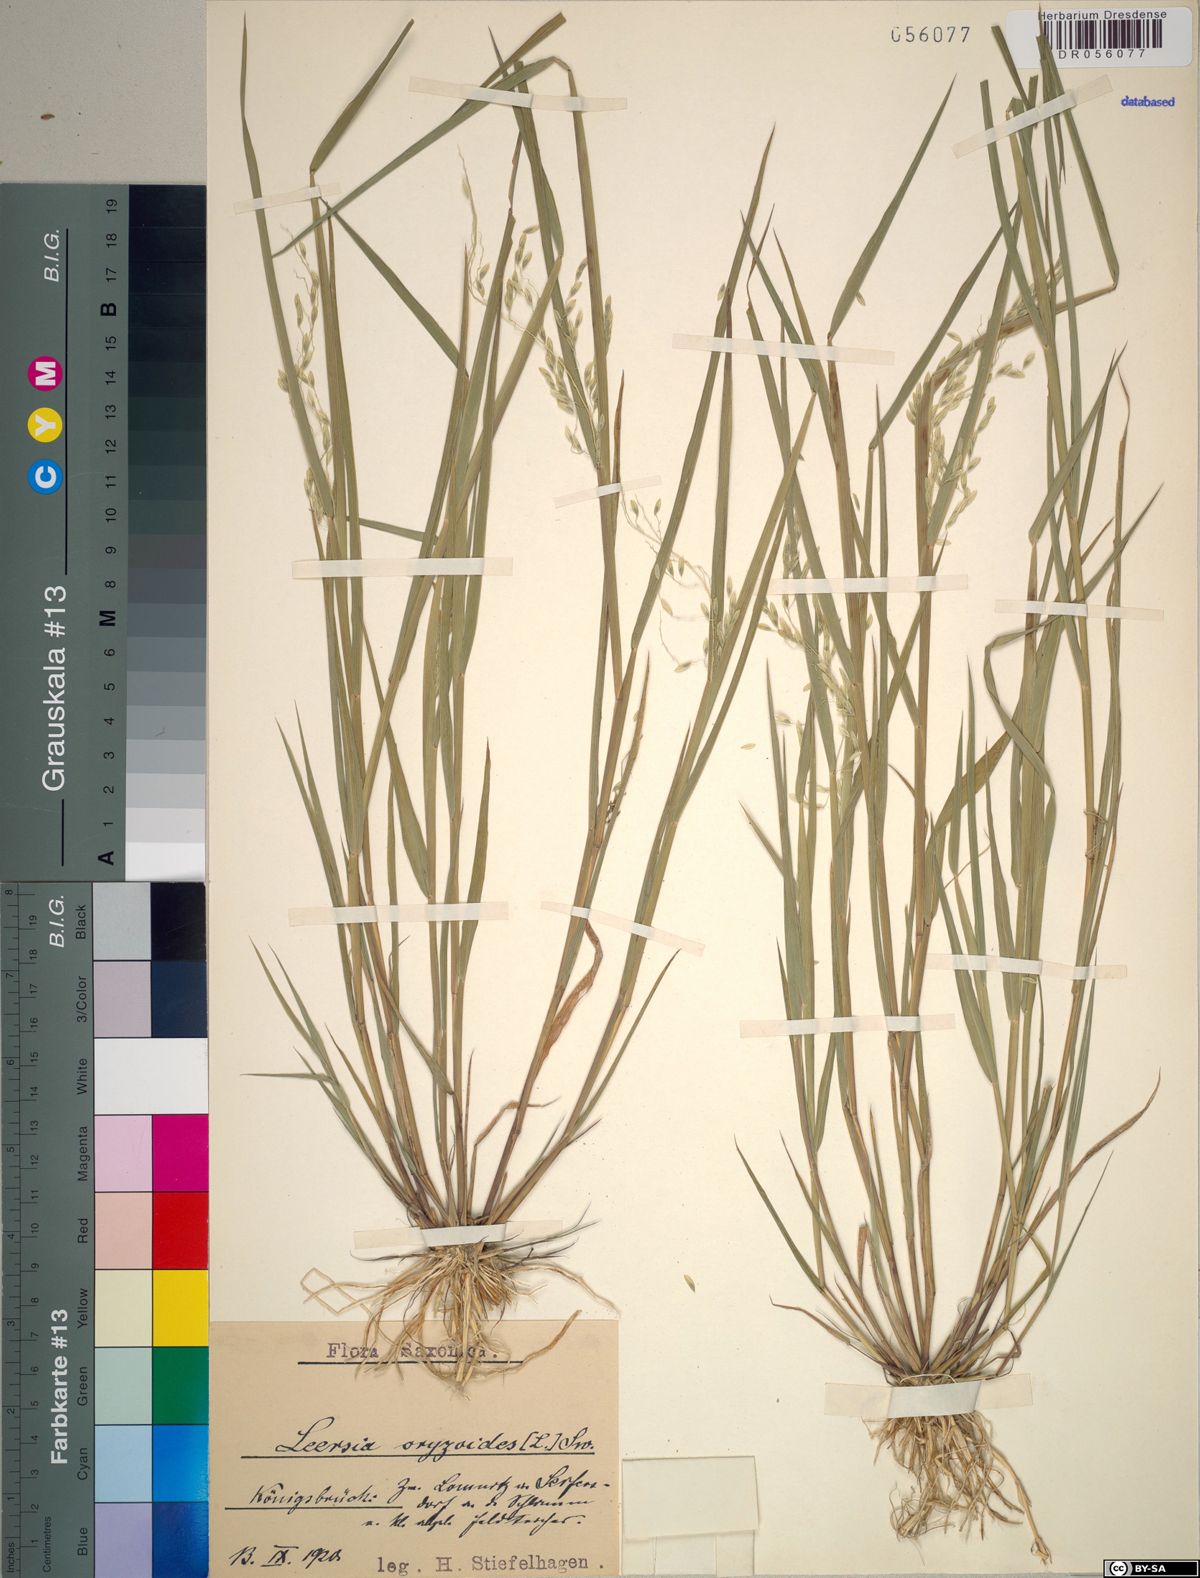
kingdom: Plantae
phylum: Tracheophyta
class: Liliopsida
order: Poales
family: Poaceae
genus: Leersia
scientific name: Leersia oryzoides
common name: Cut-grass
